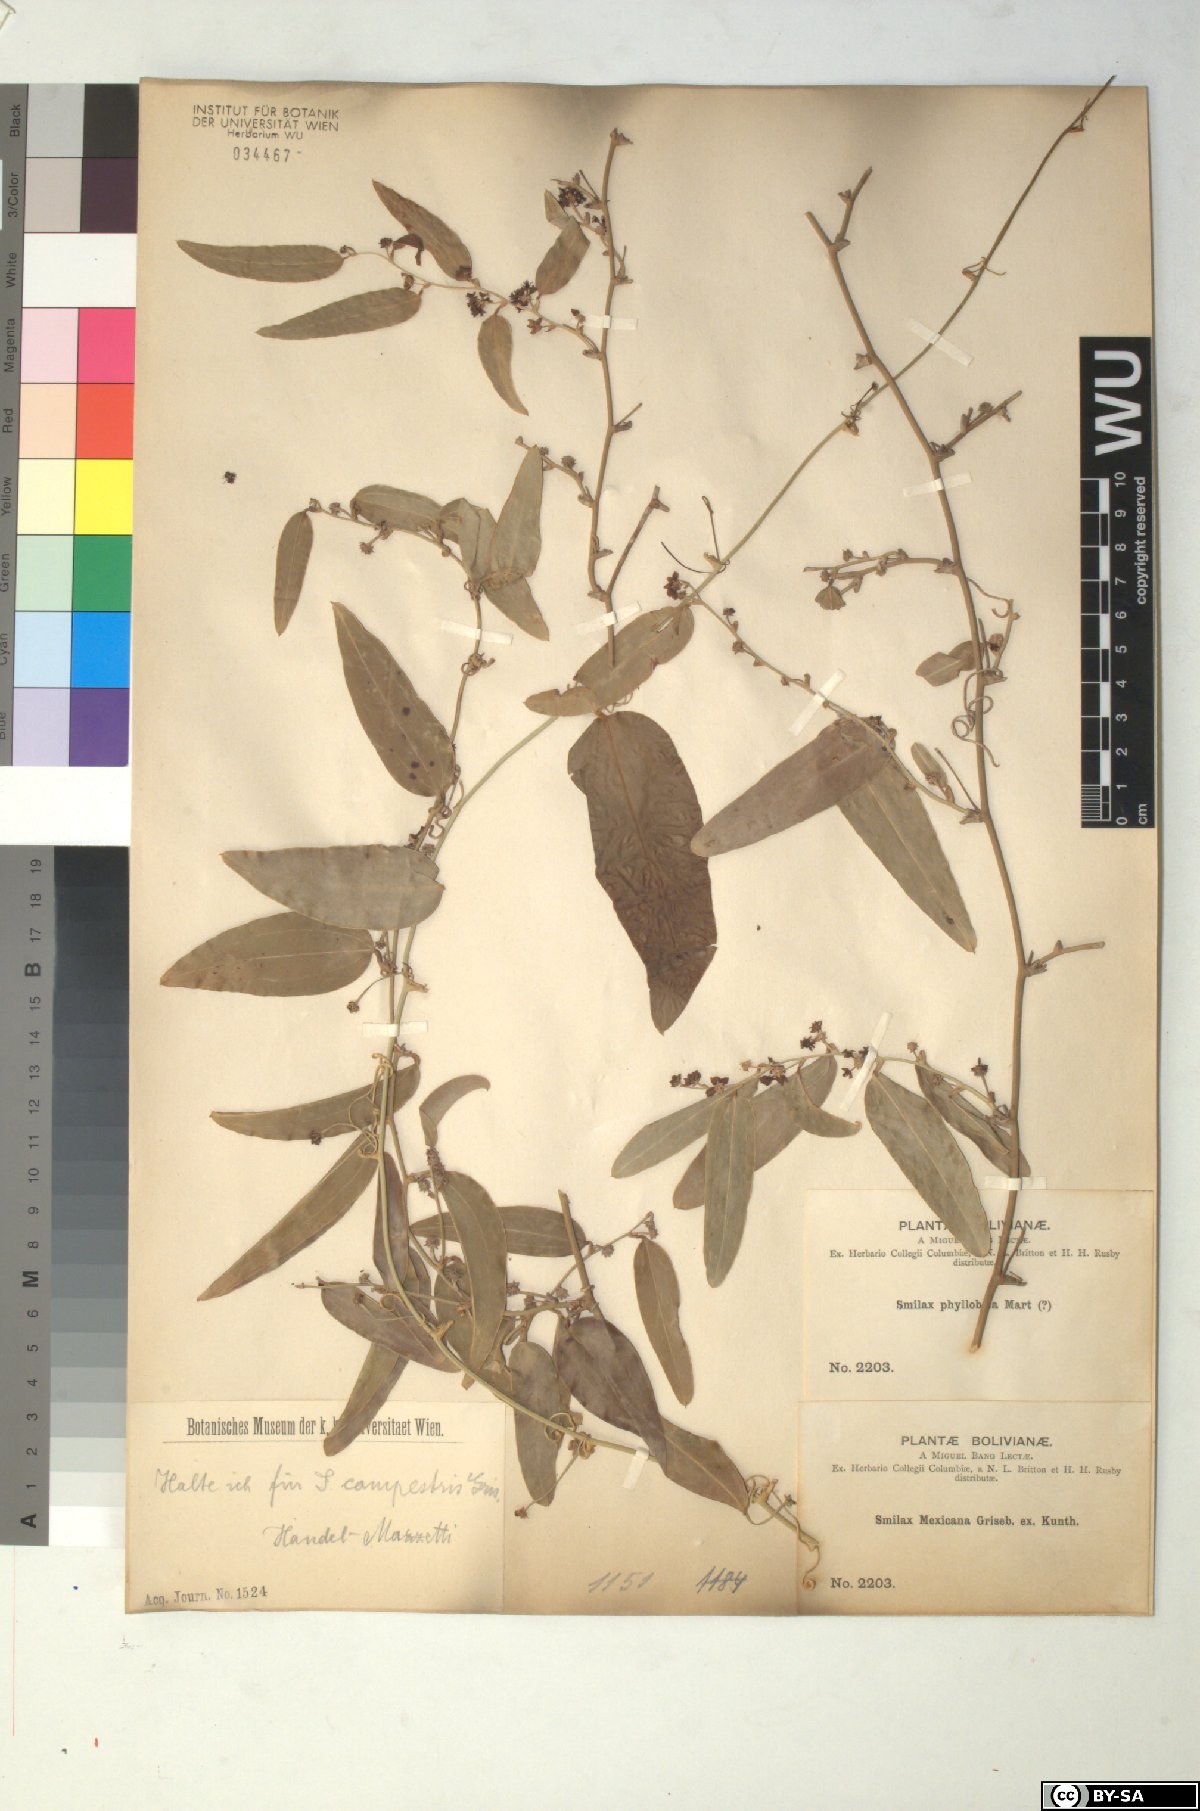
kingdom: Plantae
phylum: Tracheophyta
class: Liliopsida
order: Liliales
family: Smilacaceae
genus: Smilax
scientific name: Smilax campestris
